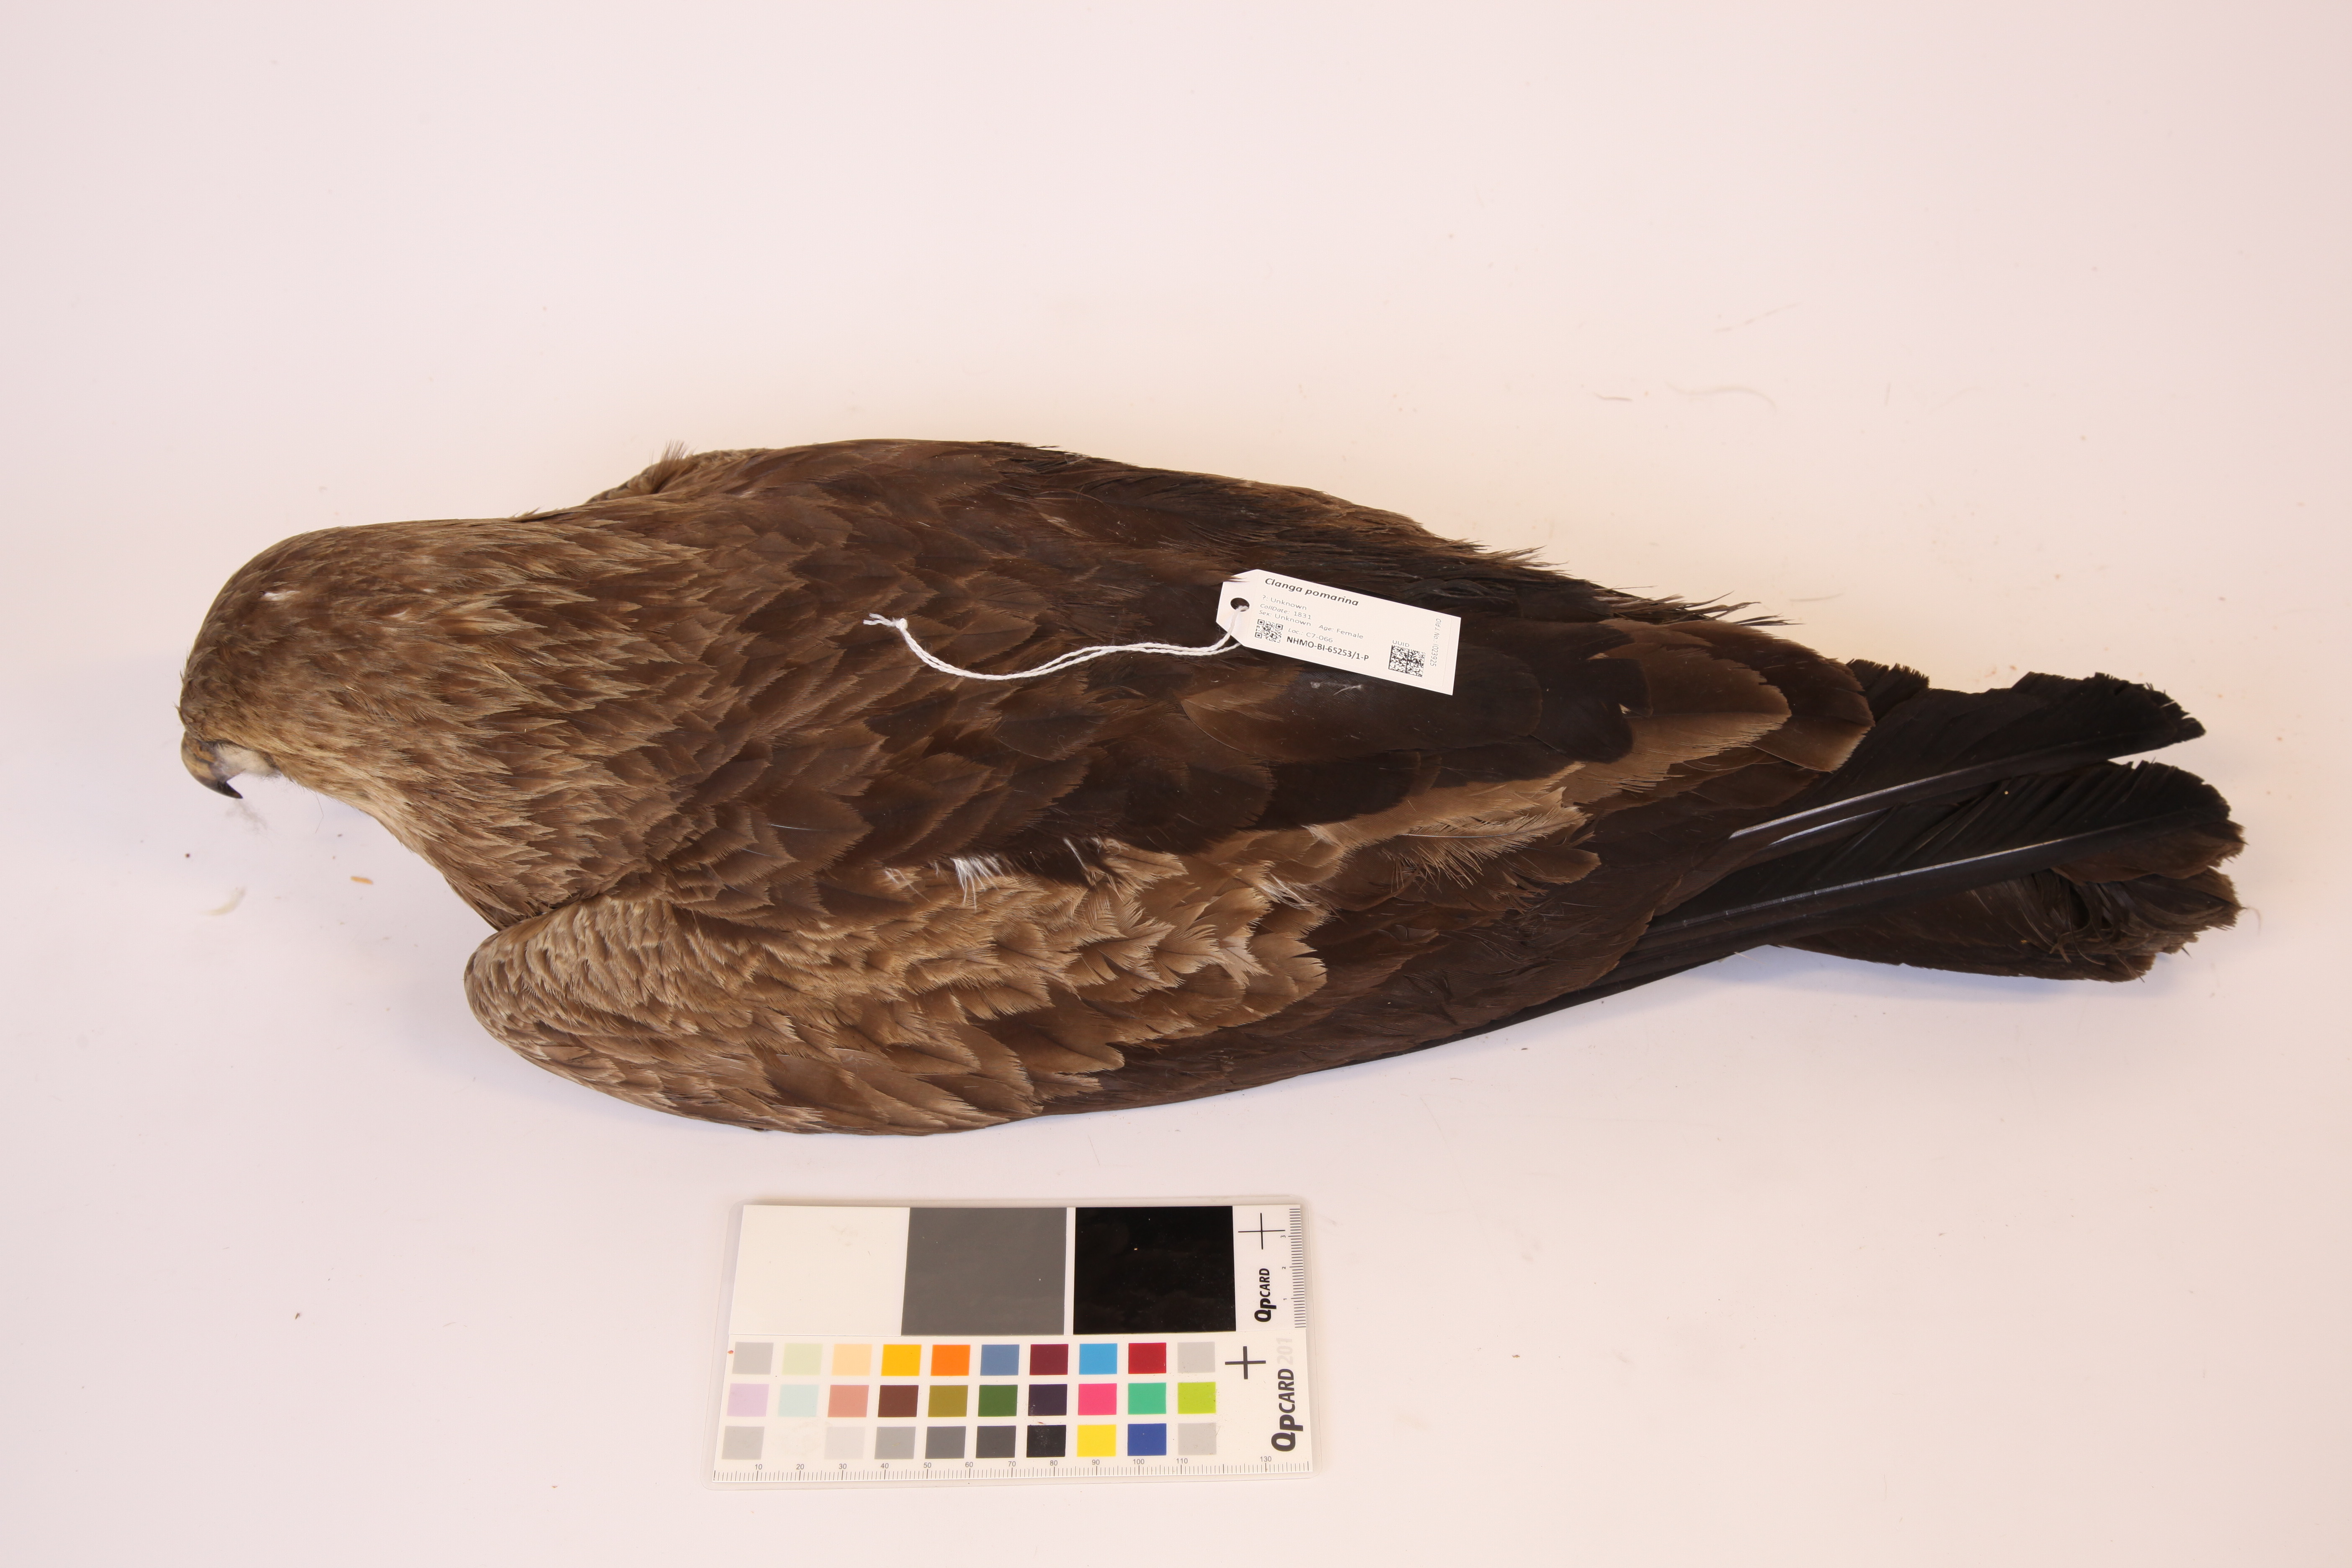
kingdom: Animalia
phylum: Chordata
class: Aves
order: Accipitriformes
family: Accipitridae
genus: Aquila
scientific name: Aquila pomarina
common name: Lesser spotted eagle
